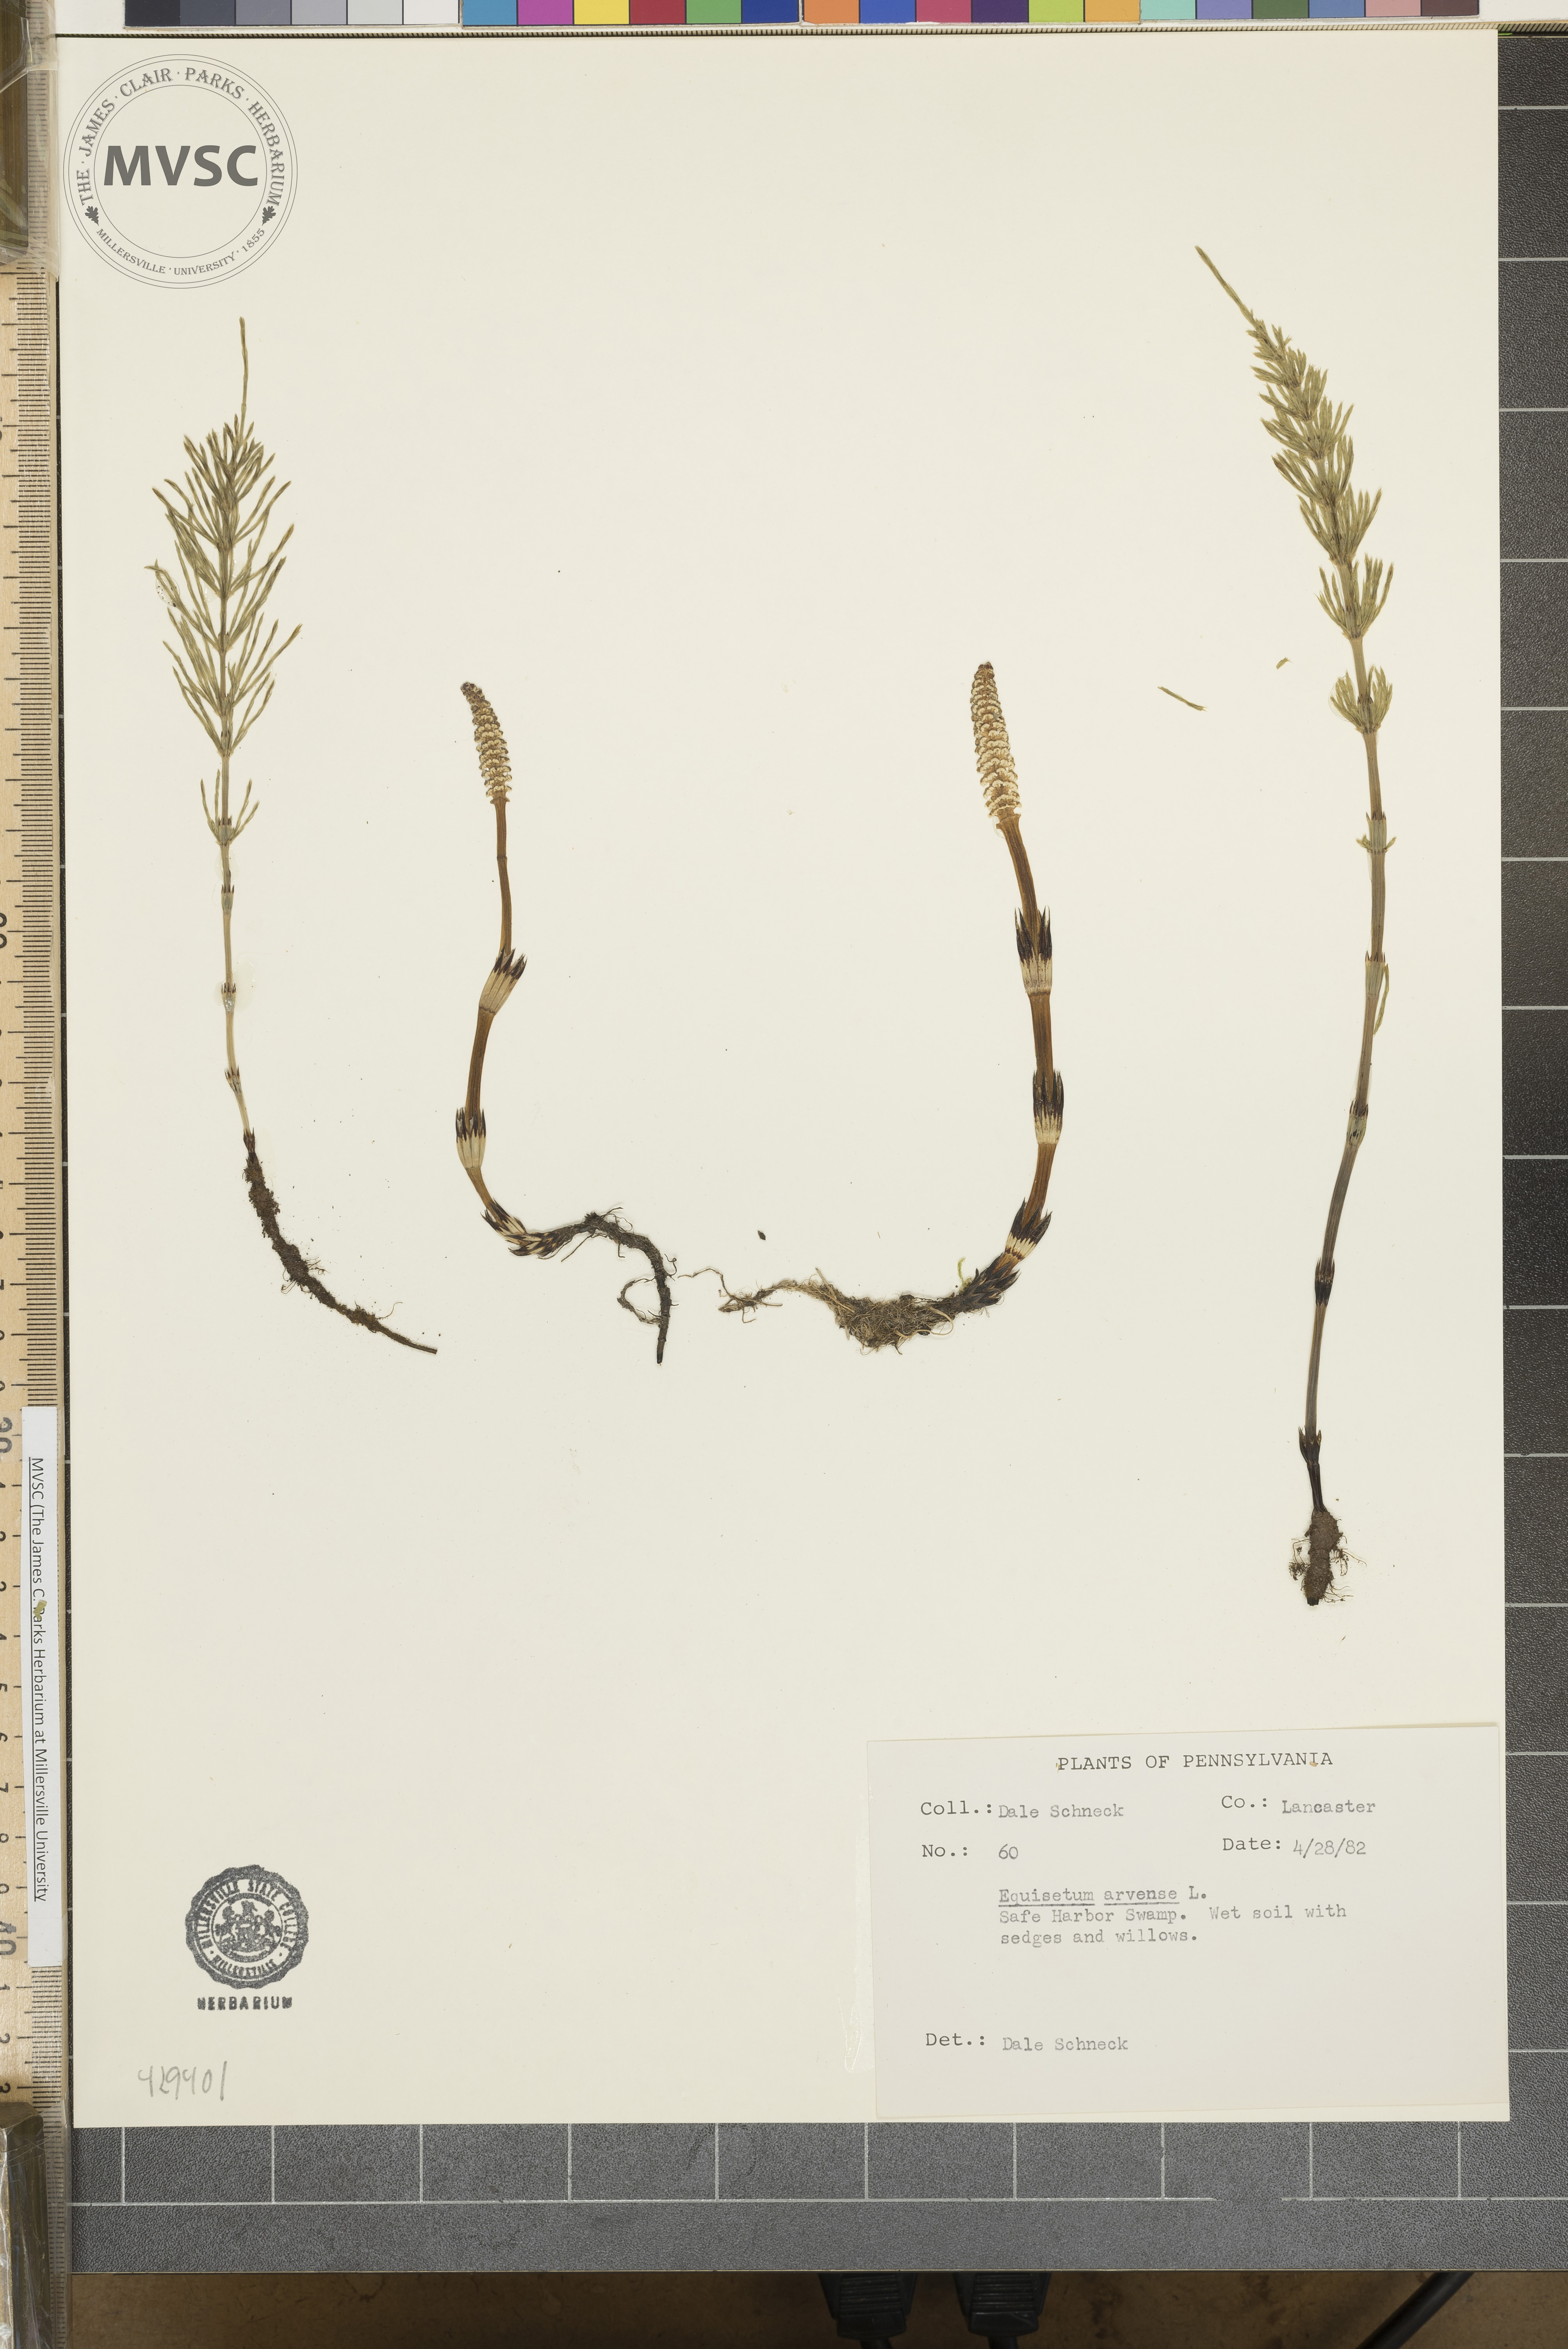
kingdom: Plantae
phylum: Tracheophyta
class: Polypodiopsida
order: Equisetales
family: Equisetaceae
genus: Equisetum
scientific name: Equisetum arvense
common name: Field horsetail
